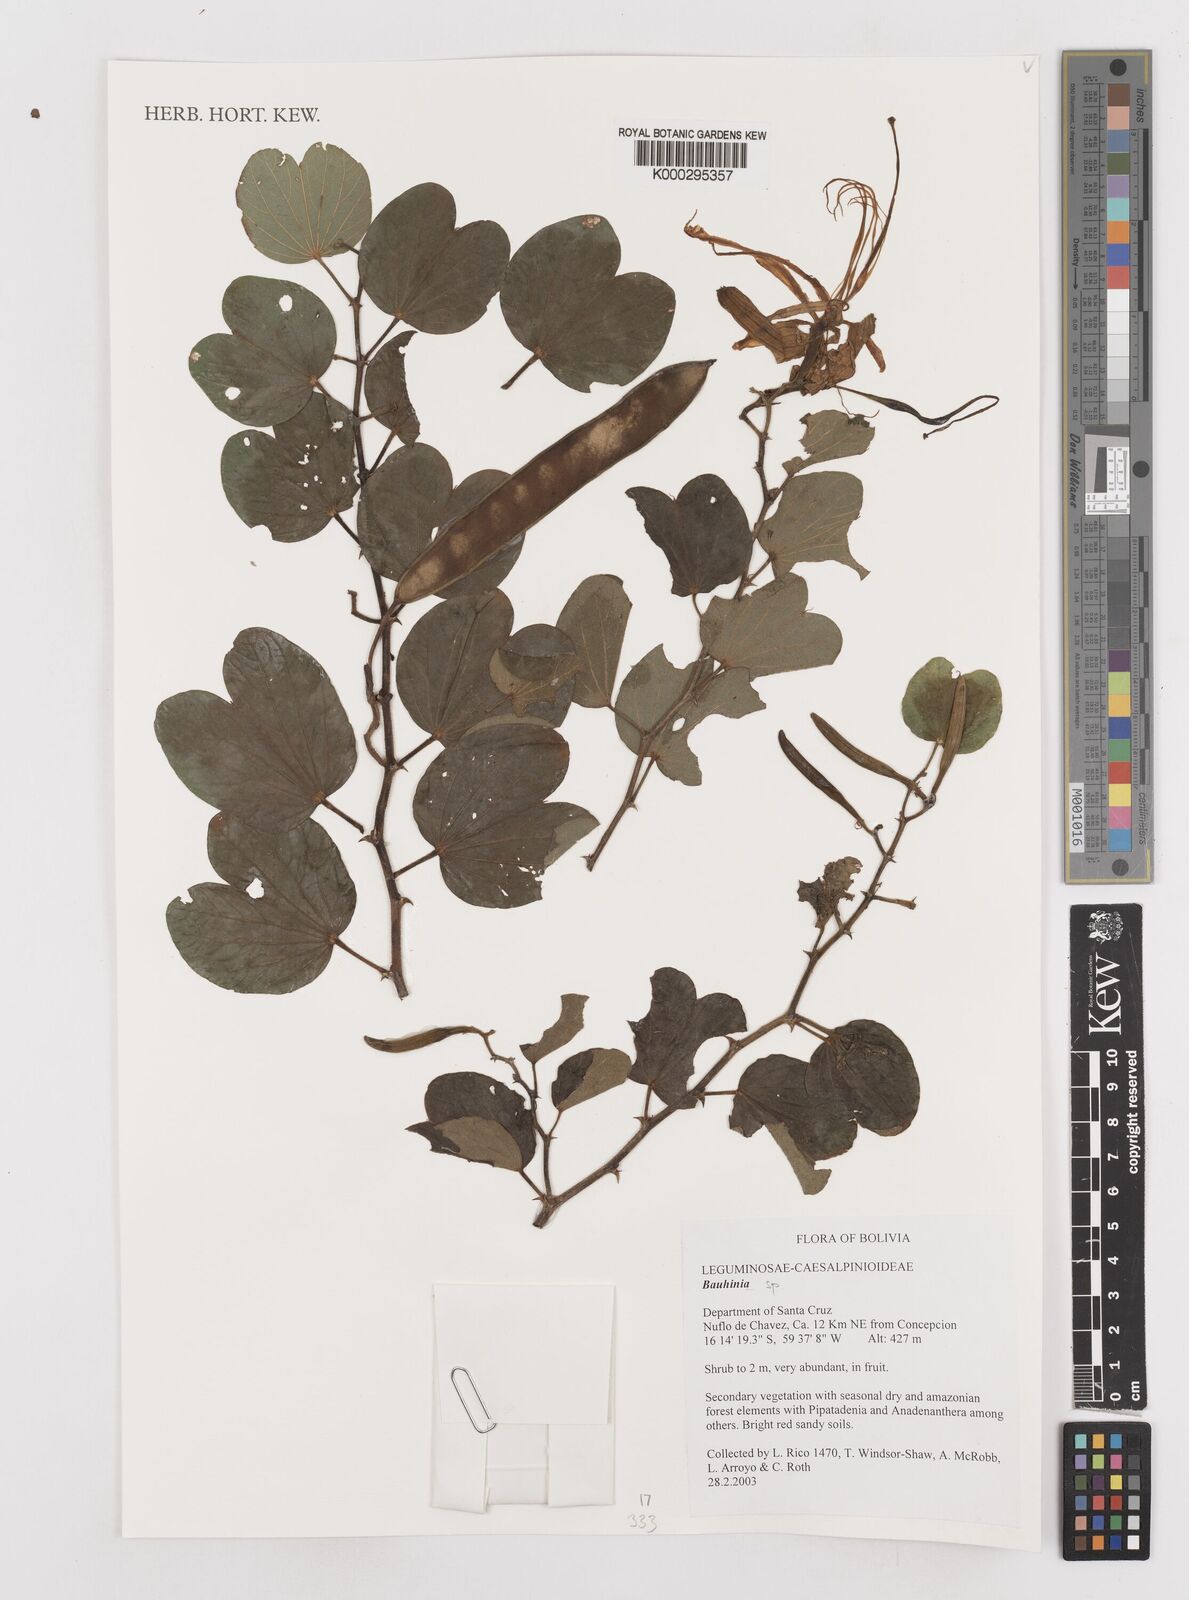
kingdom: Plantae
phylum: Tracheophyta
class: Magnoliopsida
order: Fabales
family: Fabaceae
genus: Bauhinia
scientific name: Bauhinia
